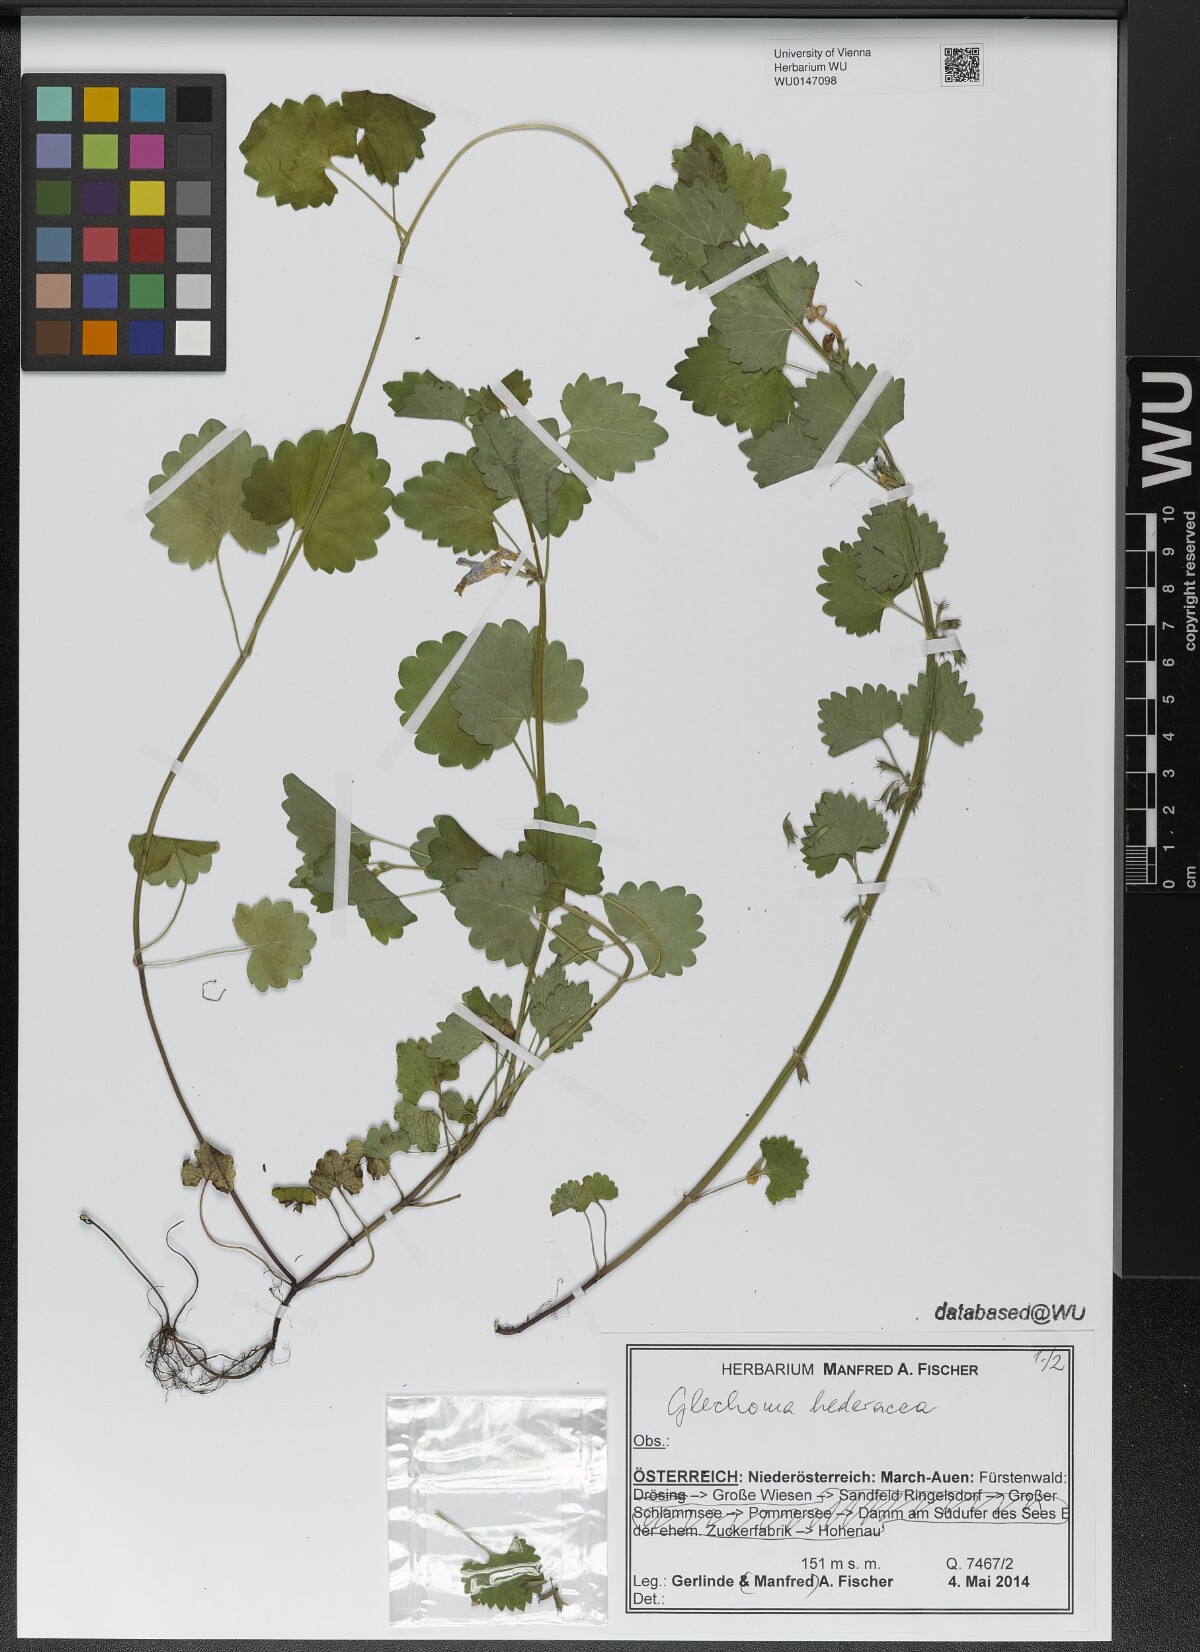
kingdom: Plantae
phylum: Tracheophyta
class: Magnoliopsida
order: Lamiales
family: Lamiaceae
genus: Glechoma
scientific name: Glechoma hederacea
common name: Ground ivy
